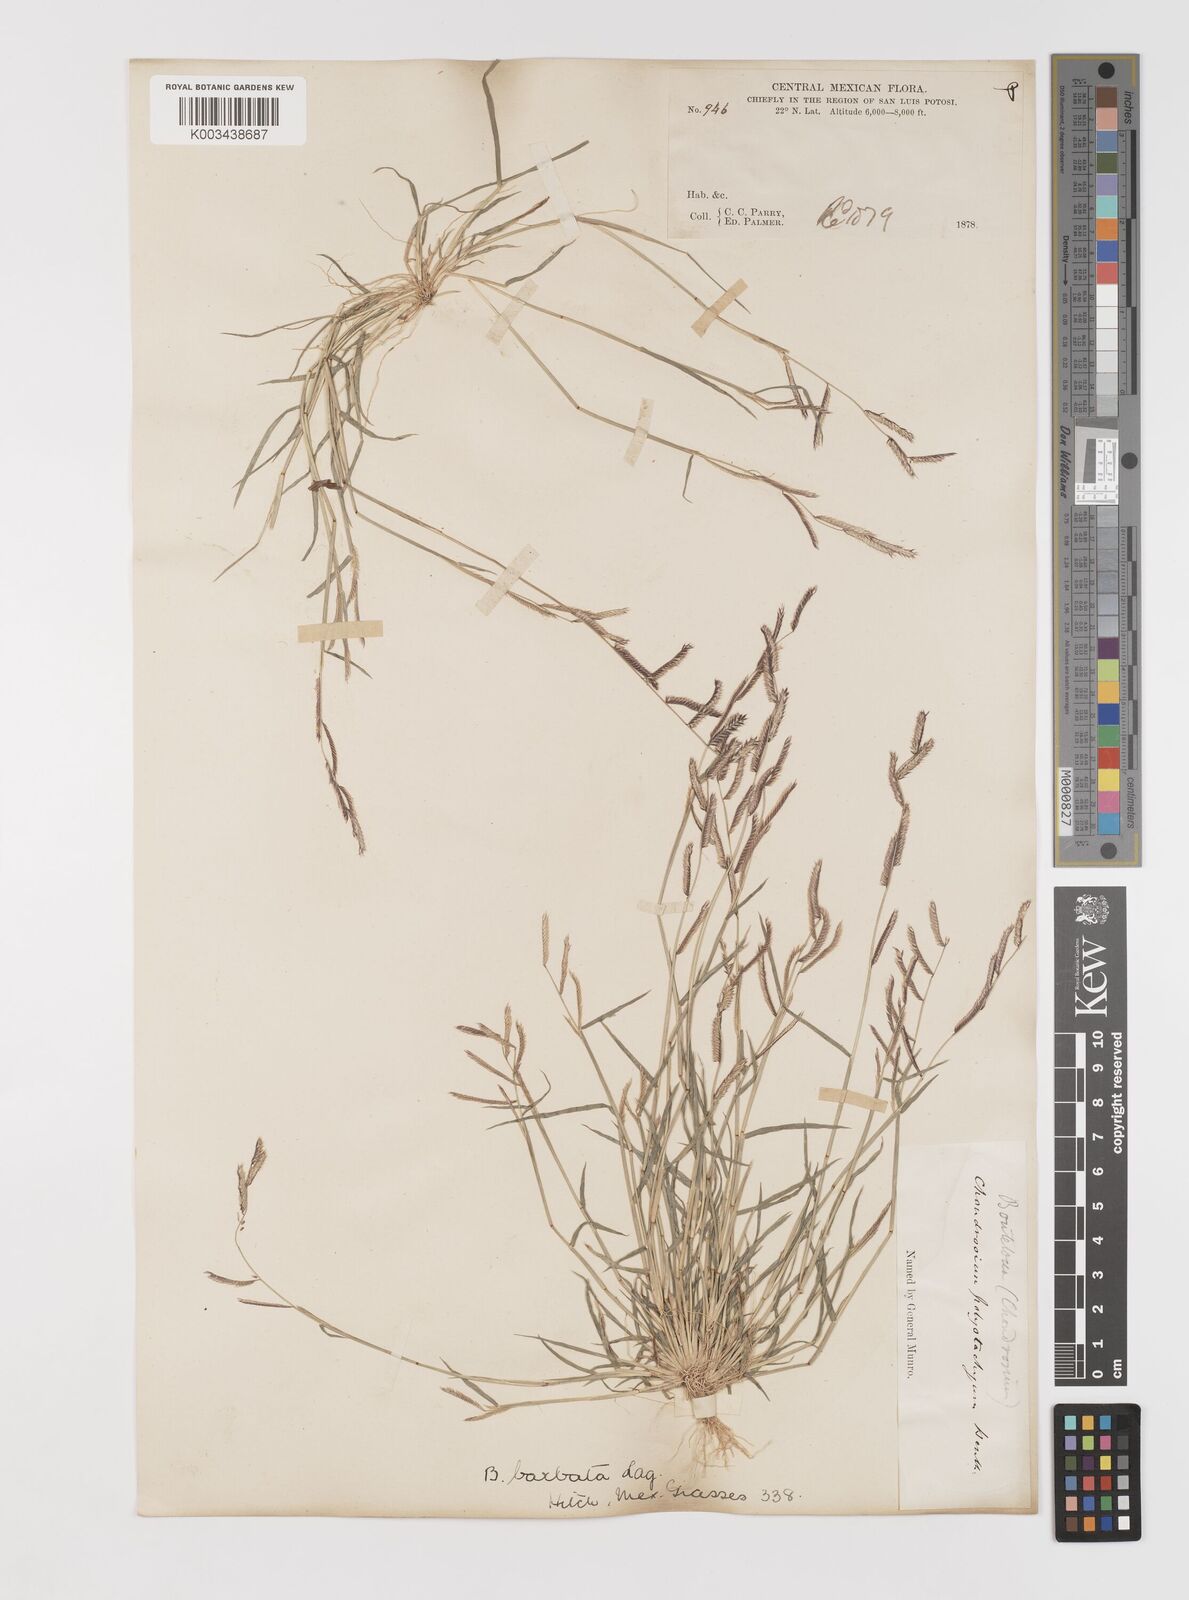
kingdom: Plantae
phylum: Tracheophyta
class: Liliopsida
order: Poales
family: Poaceae
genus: Bouteloua
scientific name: Bouteloua
